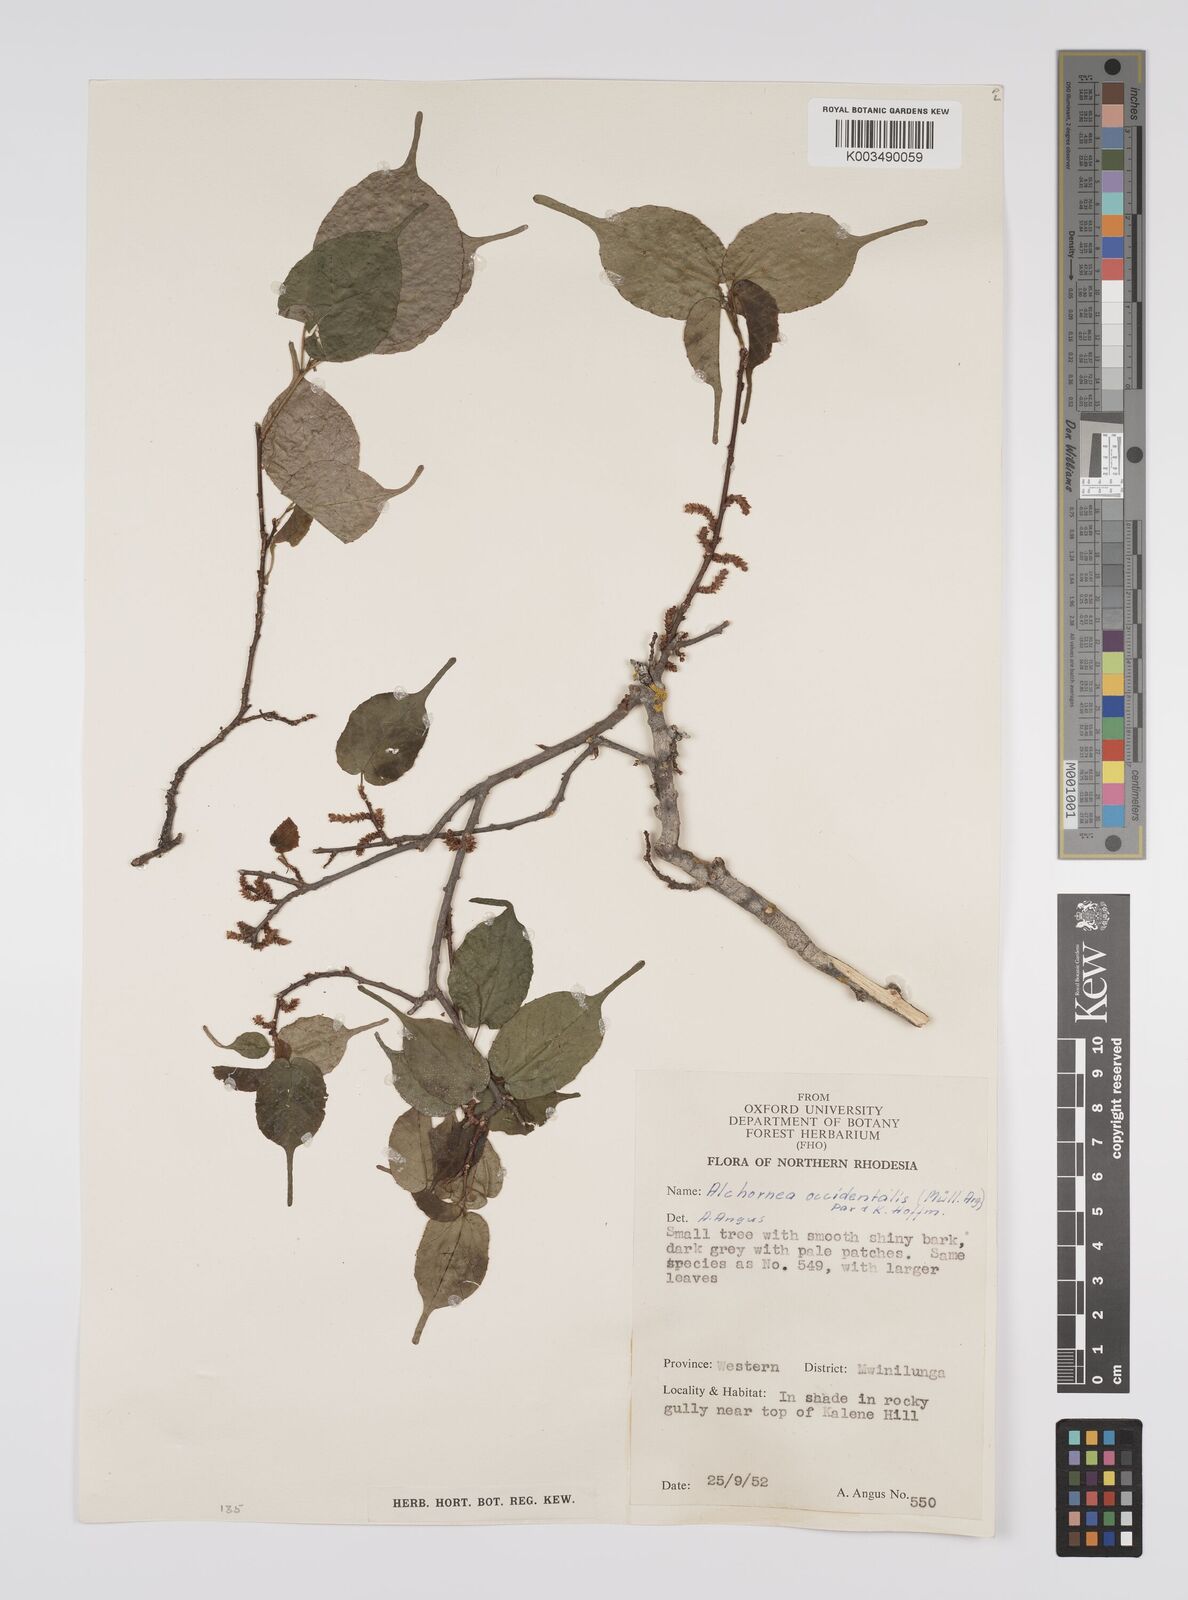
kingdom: Plantae
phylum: Tracheophyta
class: Magnoliopsida
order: Malpighiales
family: Euphorbiaceae
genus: Alchornea
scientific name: Alchornea occidentalis
